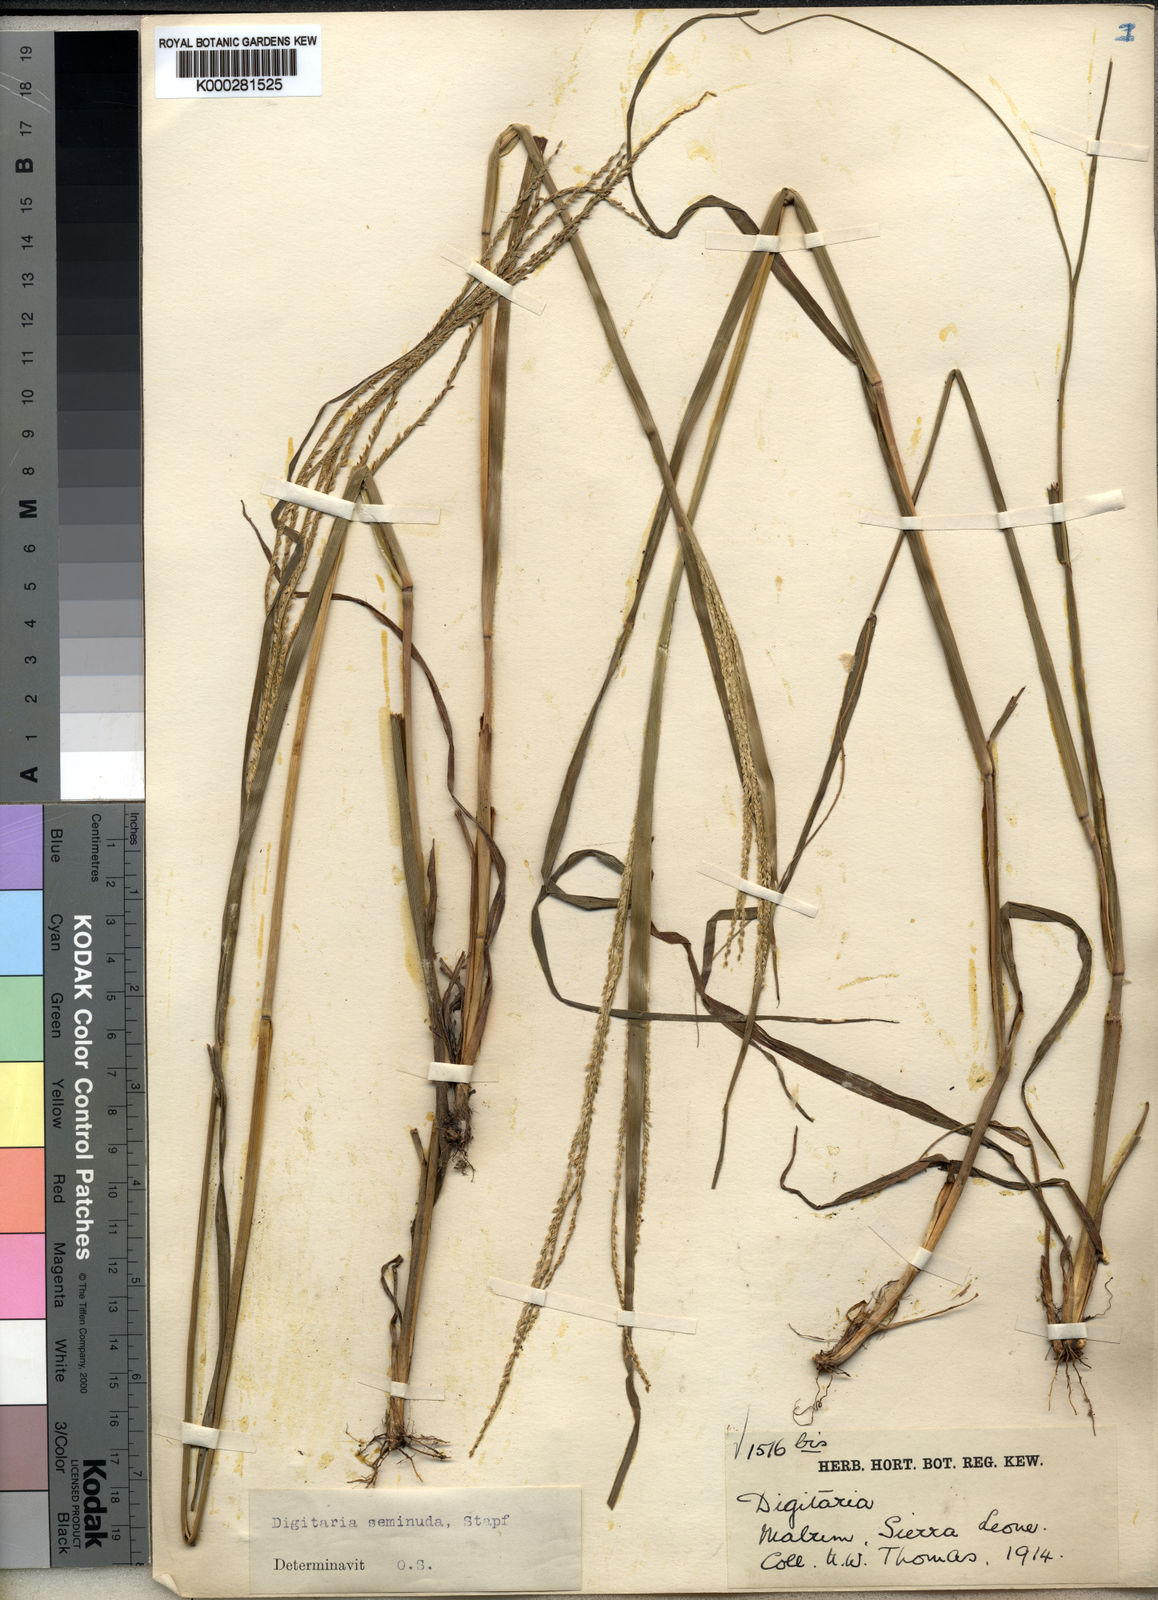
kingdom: Plantae
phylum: Tracheophyta
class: Liliopsida
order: Poales
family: Poaceae
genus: Digitaria
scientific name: Digitaria atrofusca
